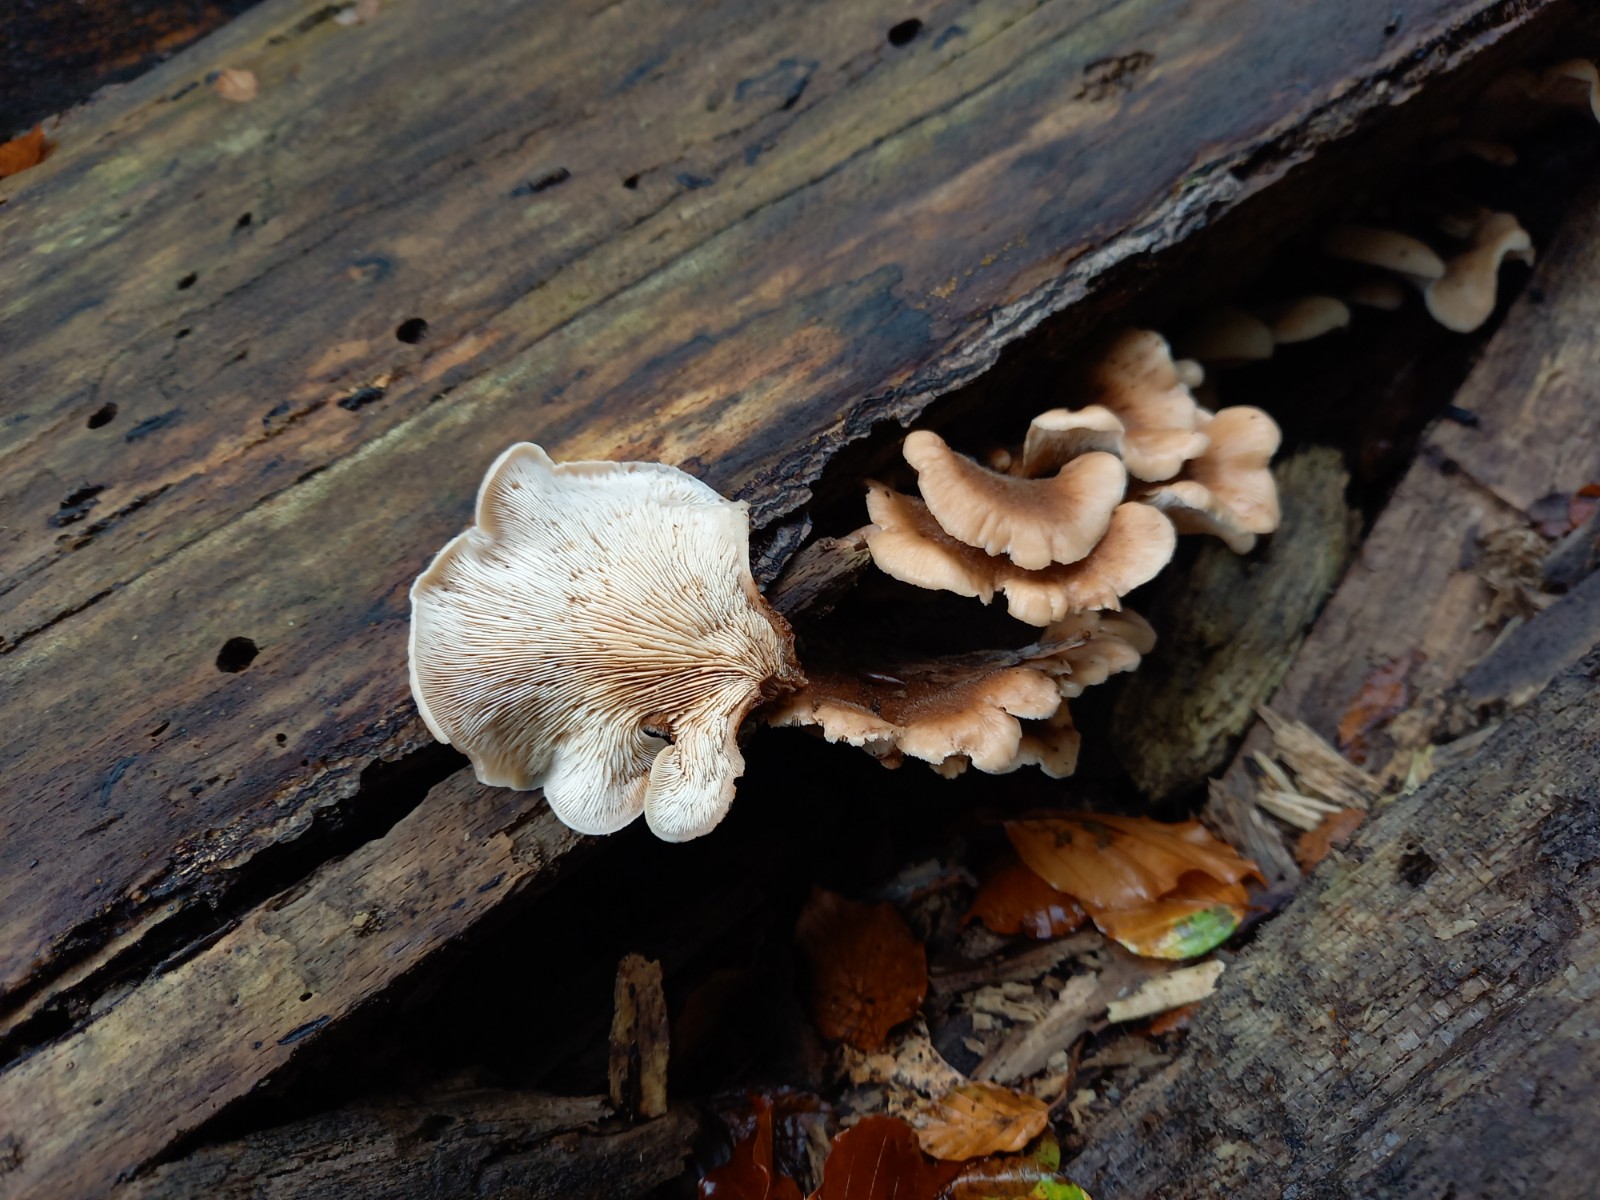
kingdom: Fungi
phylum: Basidiomycota
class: Agaricomycetes
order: Russulales
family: Auriscalpiaceae
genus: Lentinellus
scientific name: Lentinellus ursinus
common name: børstehåret savbladhat
